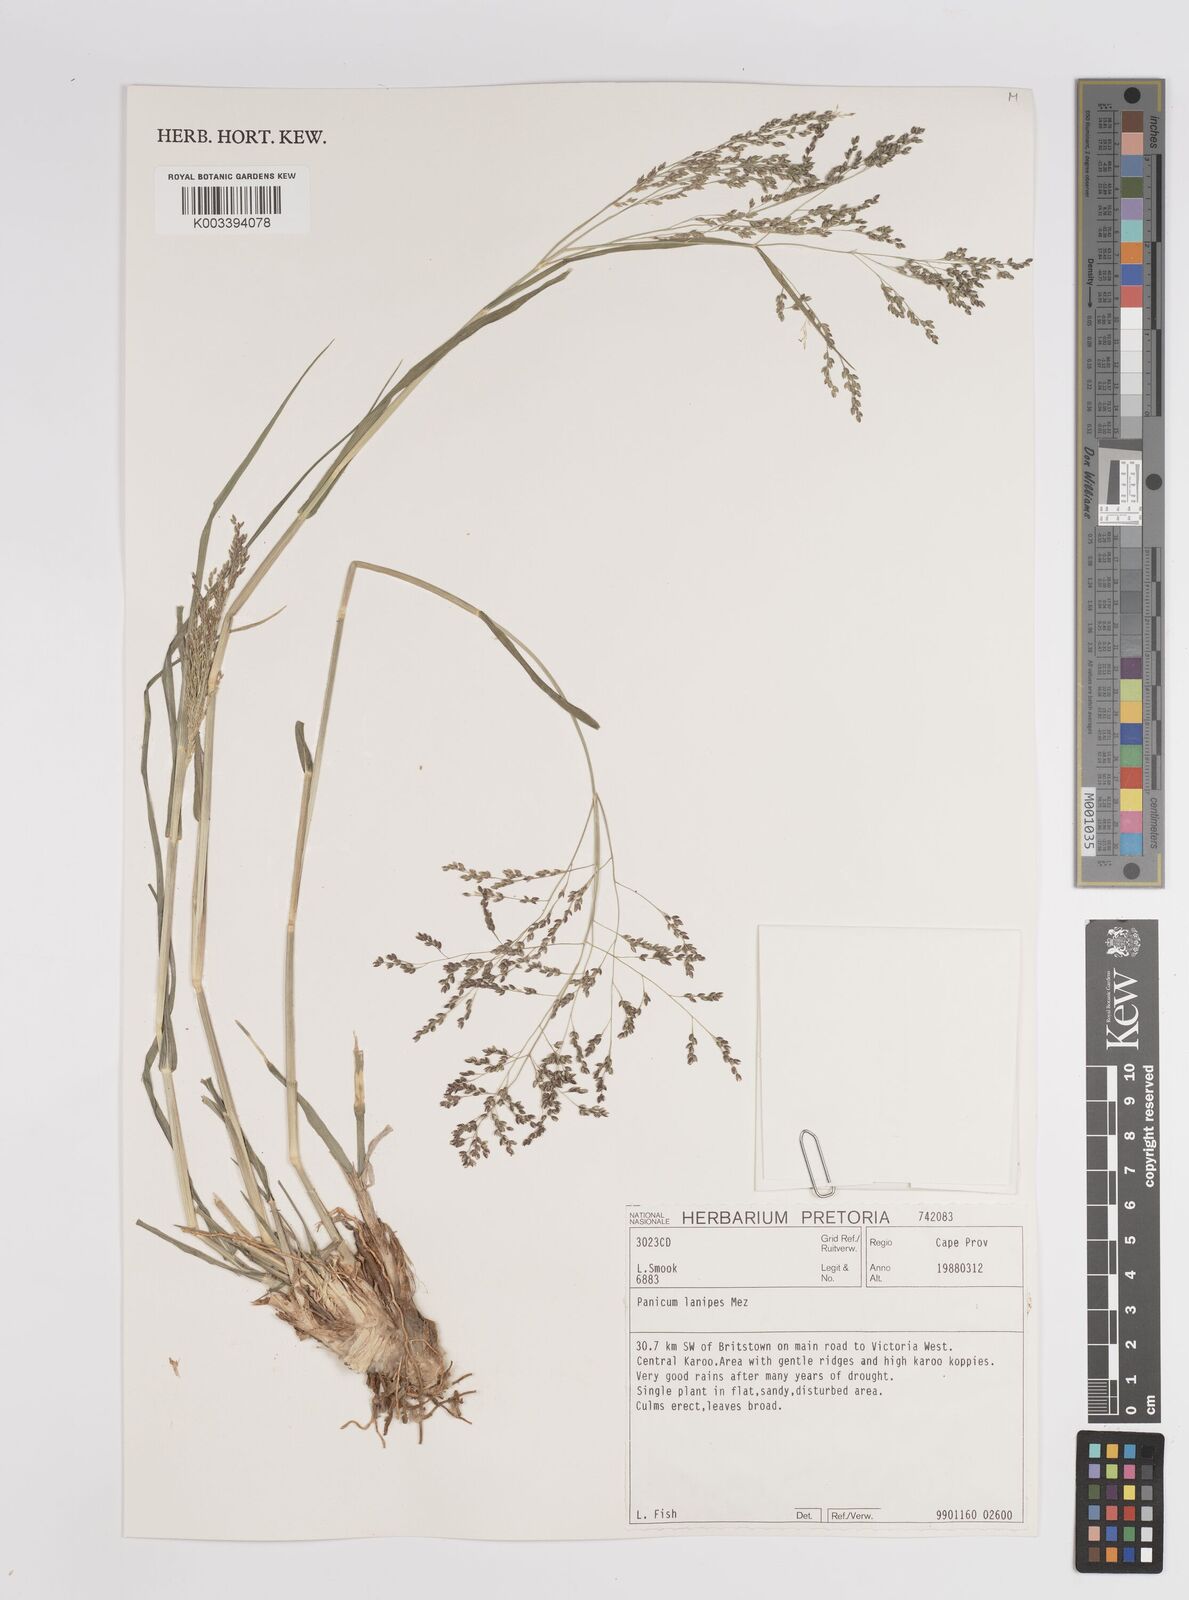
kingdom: Plantae
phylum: Tracheophyta
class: Liliopsida
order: Poales
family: Poaceae
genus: Panicum
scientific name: Panicum lanipes
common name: Wolvoet panicum
